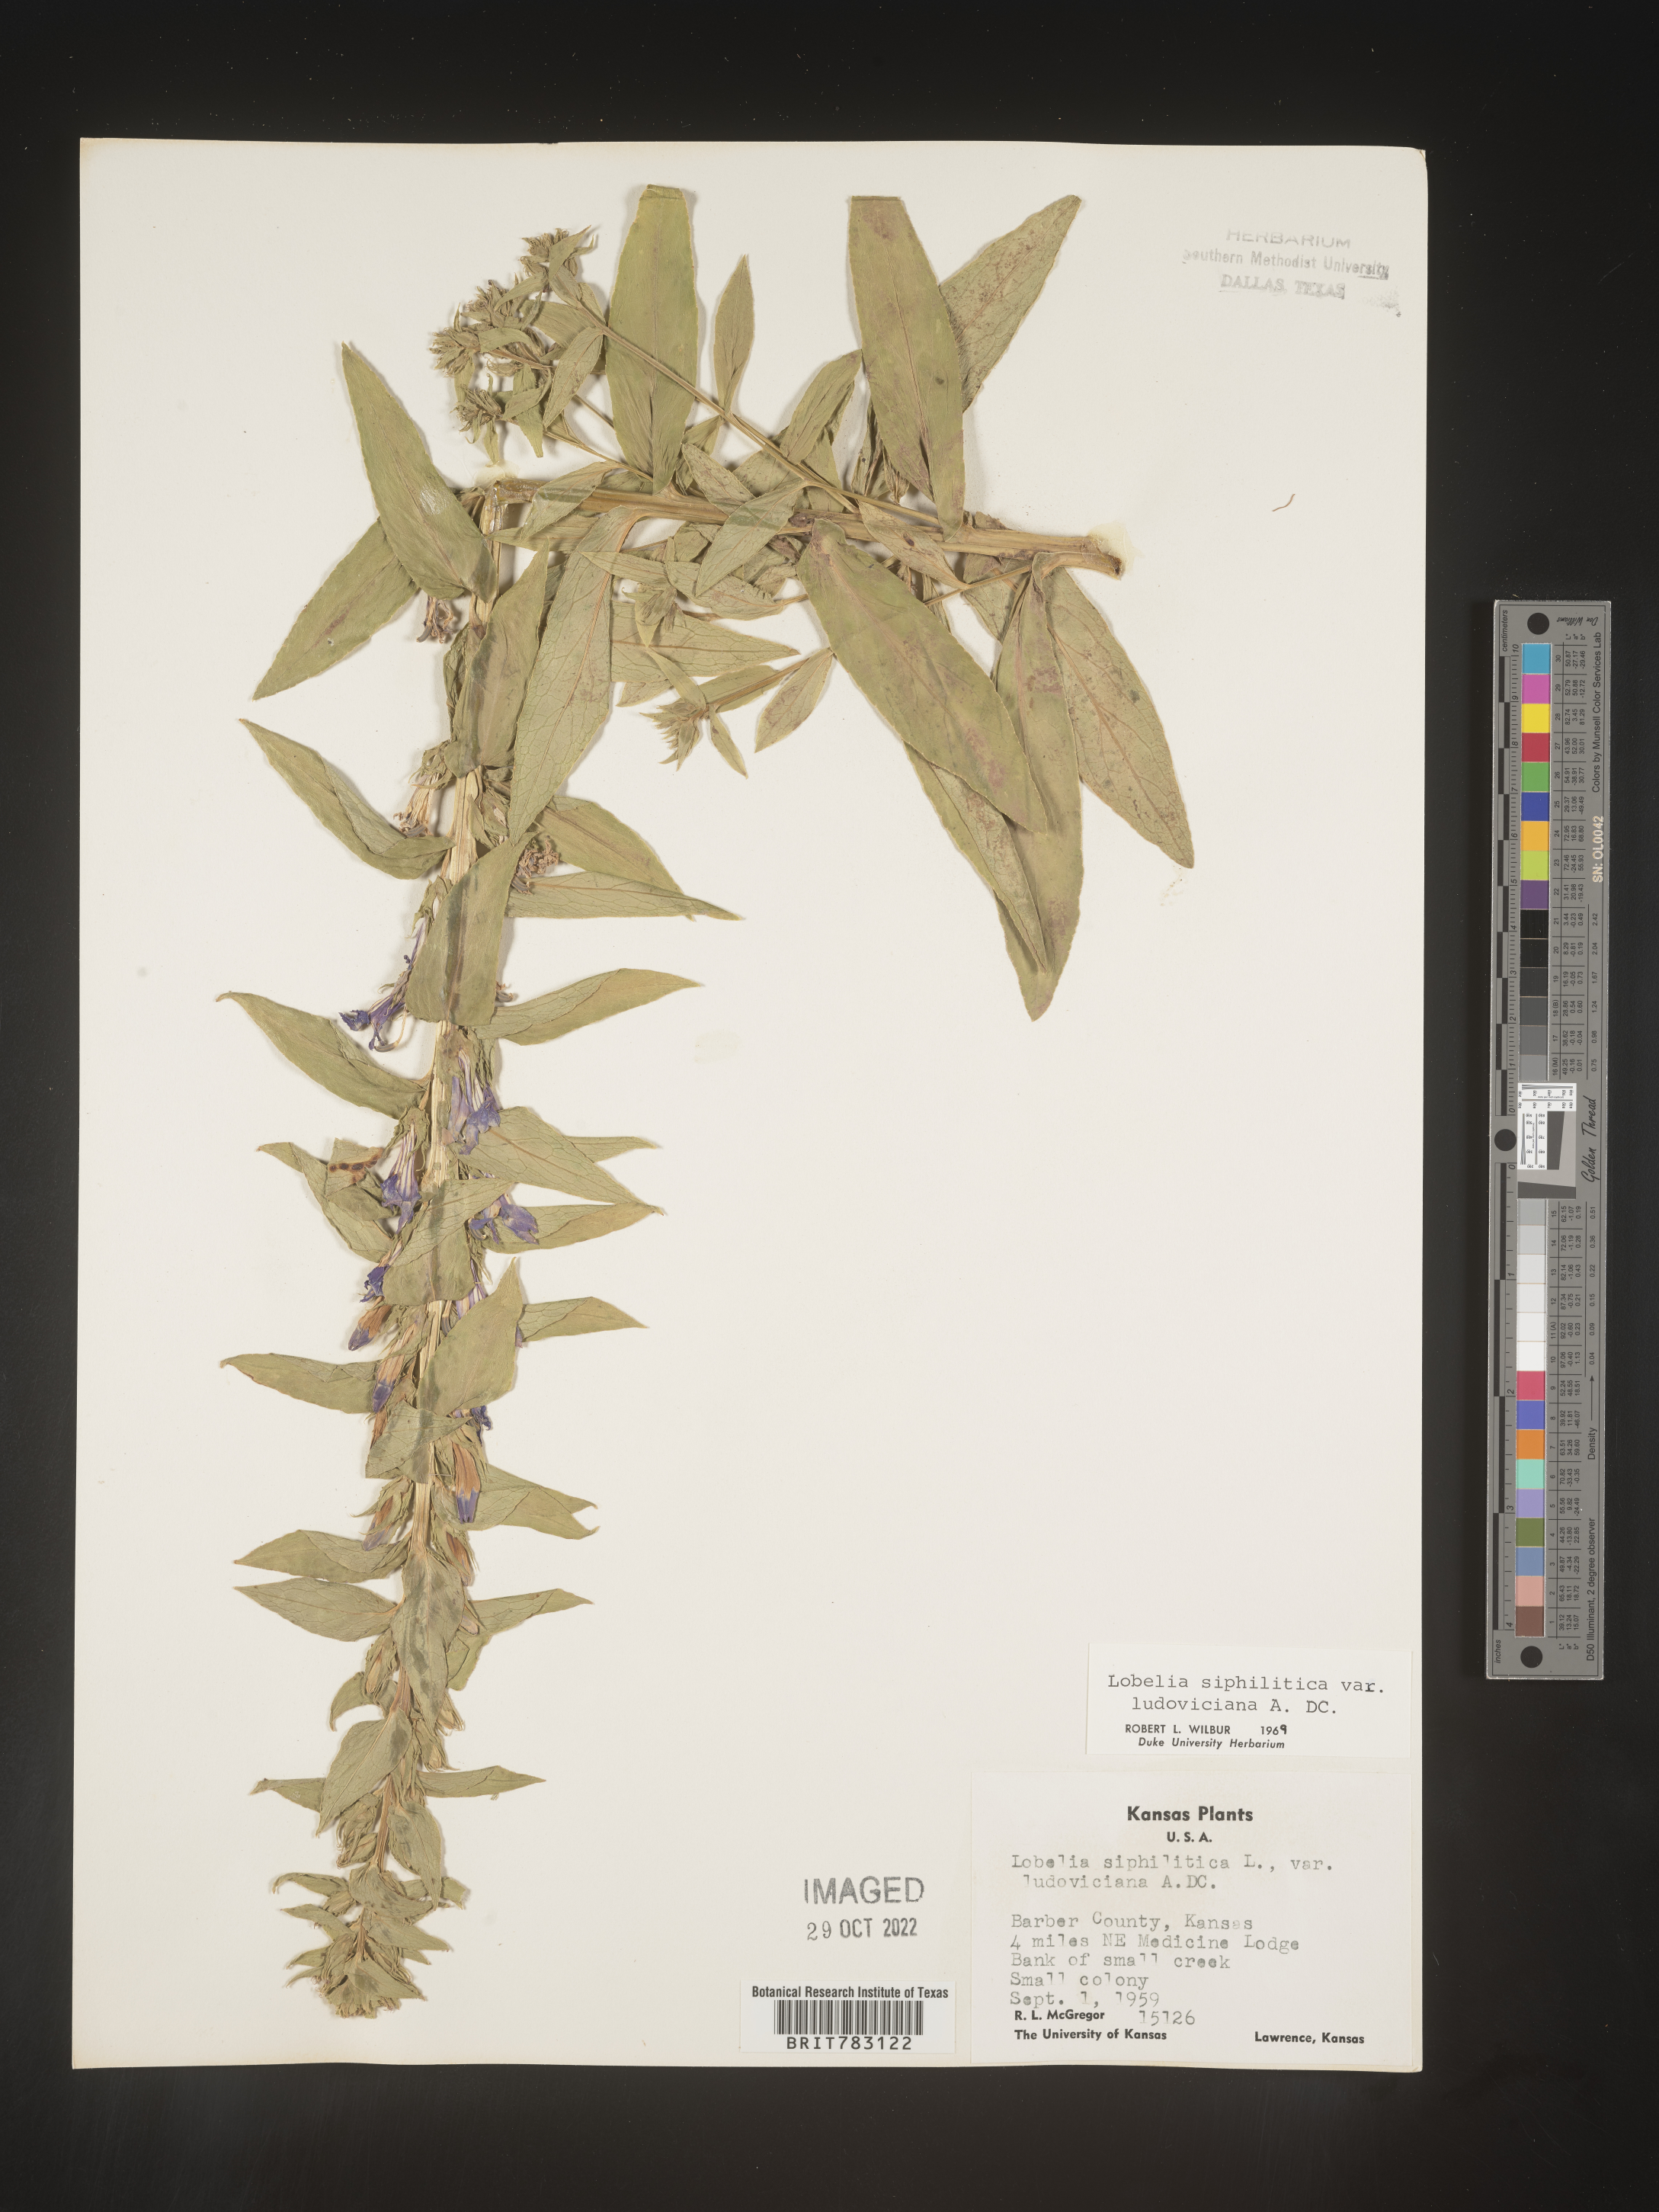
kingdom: Plantae
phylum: Tracheophyta
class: Magnoliopsida
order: Asterales
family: Campanulaceae
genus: Lobelia
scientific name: Lobelia siphilitica
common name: Great lobelia
